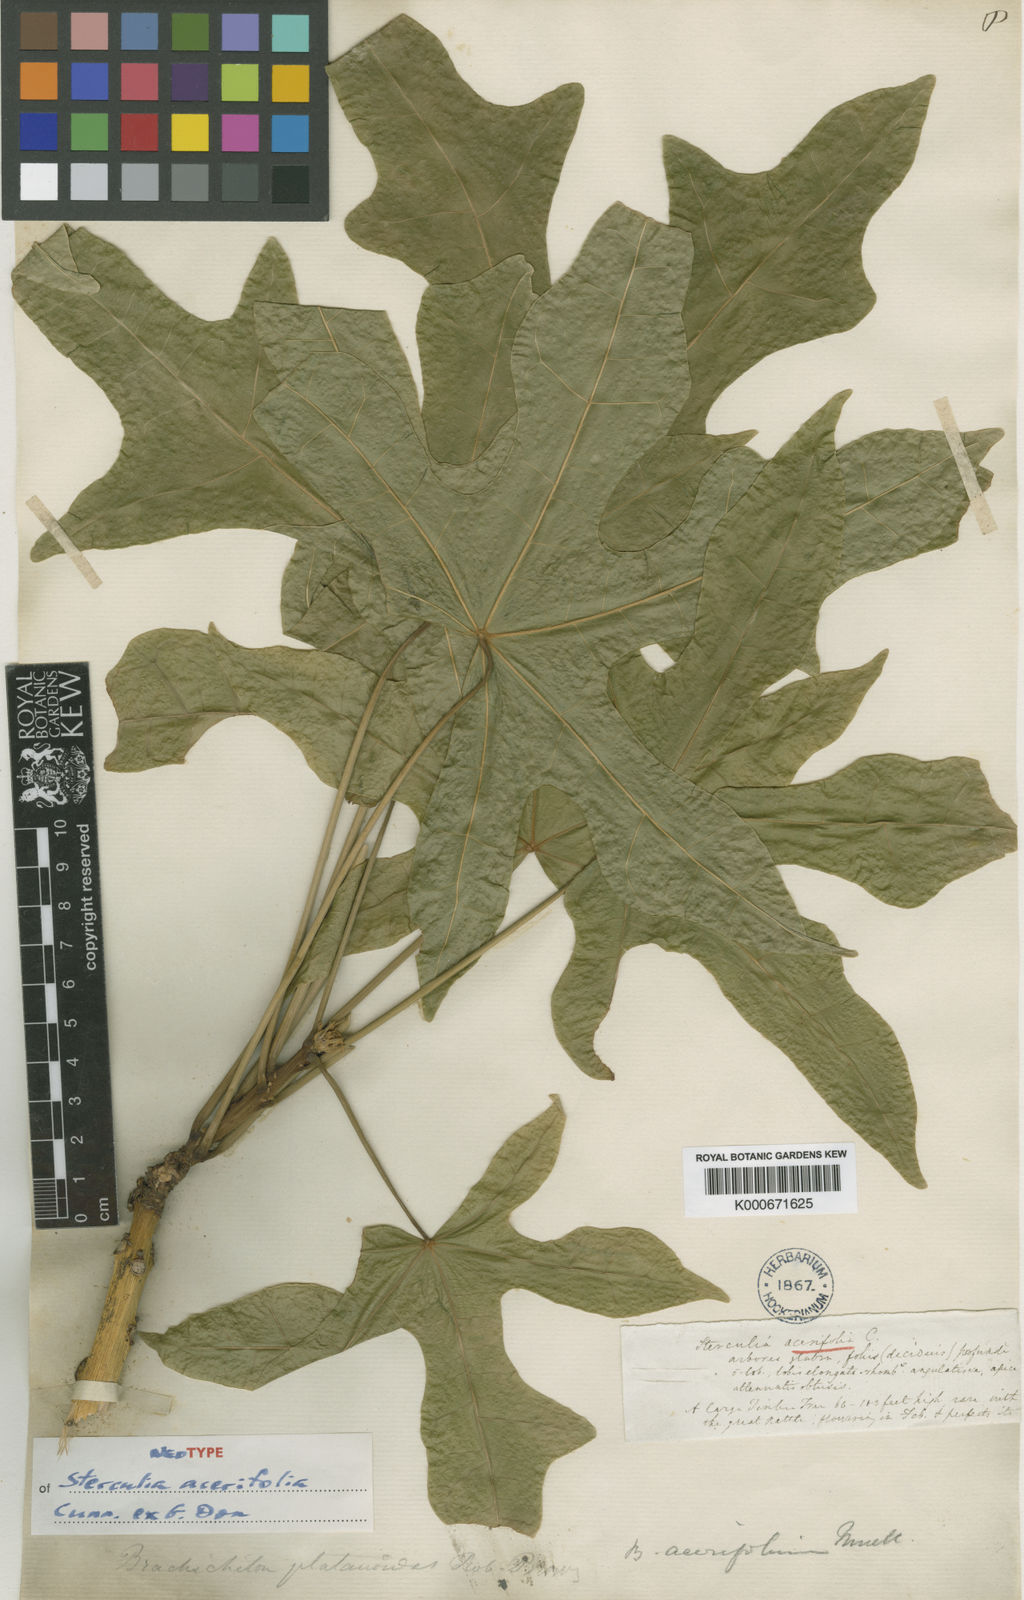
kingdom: Plantae
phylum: Tracheophyta
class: Magnoliopsida
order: Malvales
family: Malvaceae
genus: Brachychiton
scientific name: Brachychiton acerifolius
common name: Illawarra flame tree
